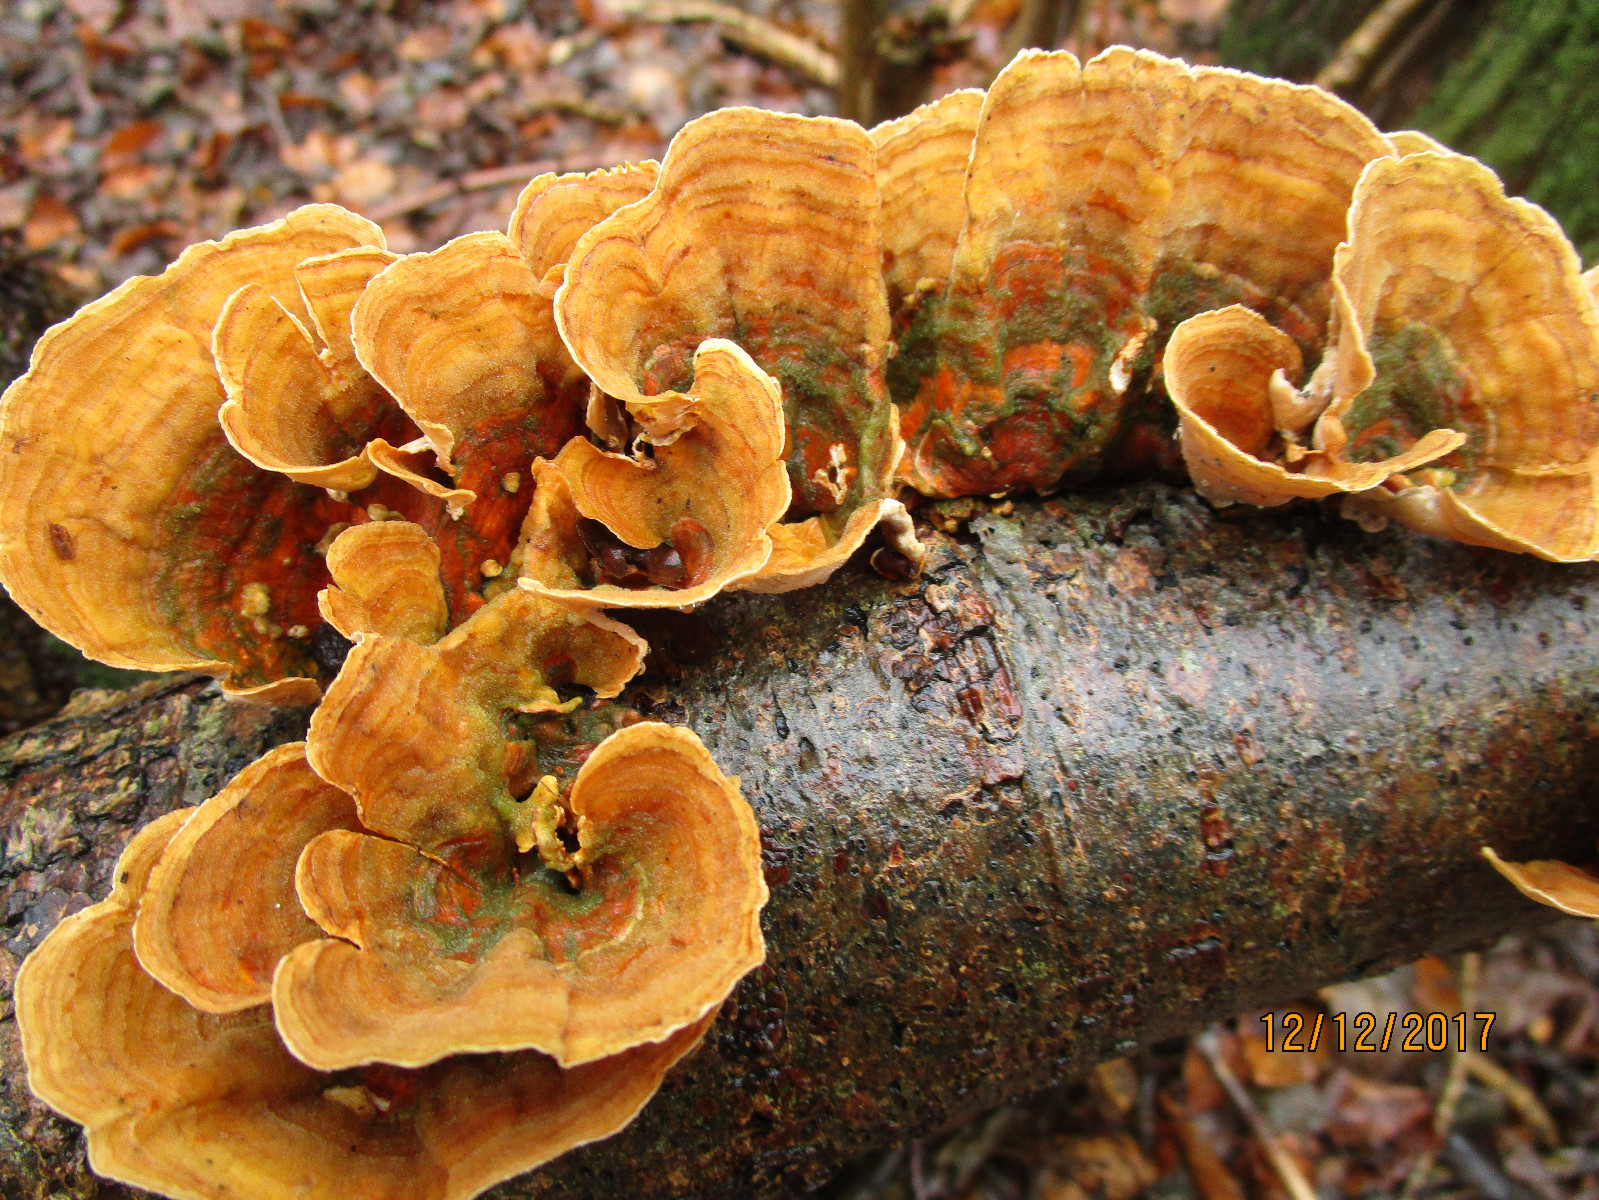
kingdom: Fungi
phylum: Basidiomycota
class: Agaricomycetes
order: Russulales
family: Stereaceae
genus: Stereum
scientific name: Stereum subtomentosum
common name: smuk lædersvamp
